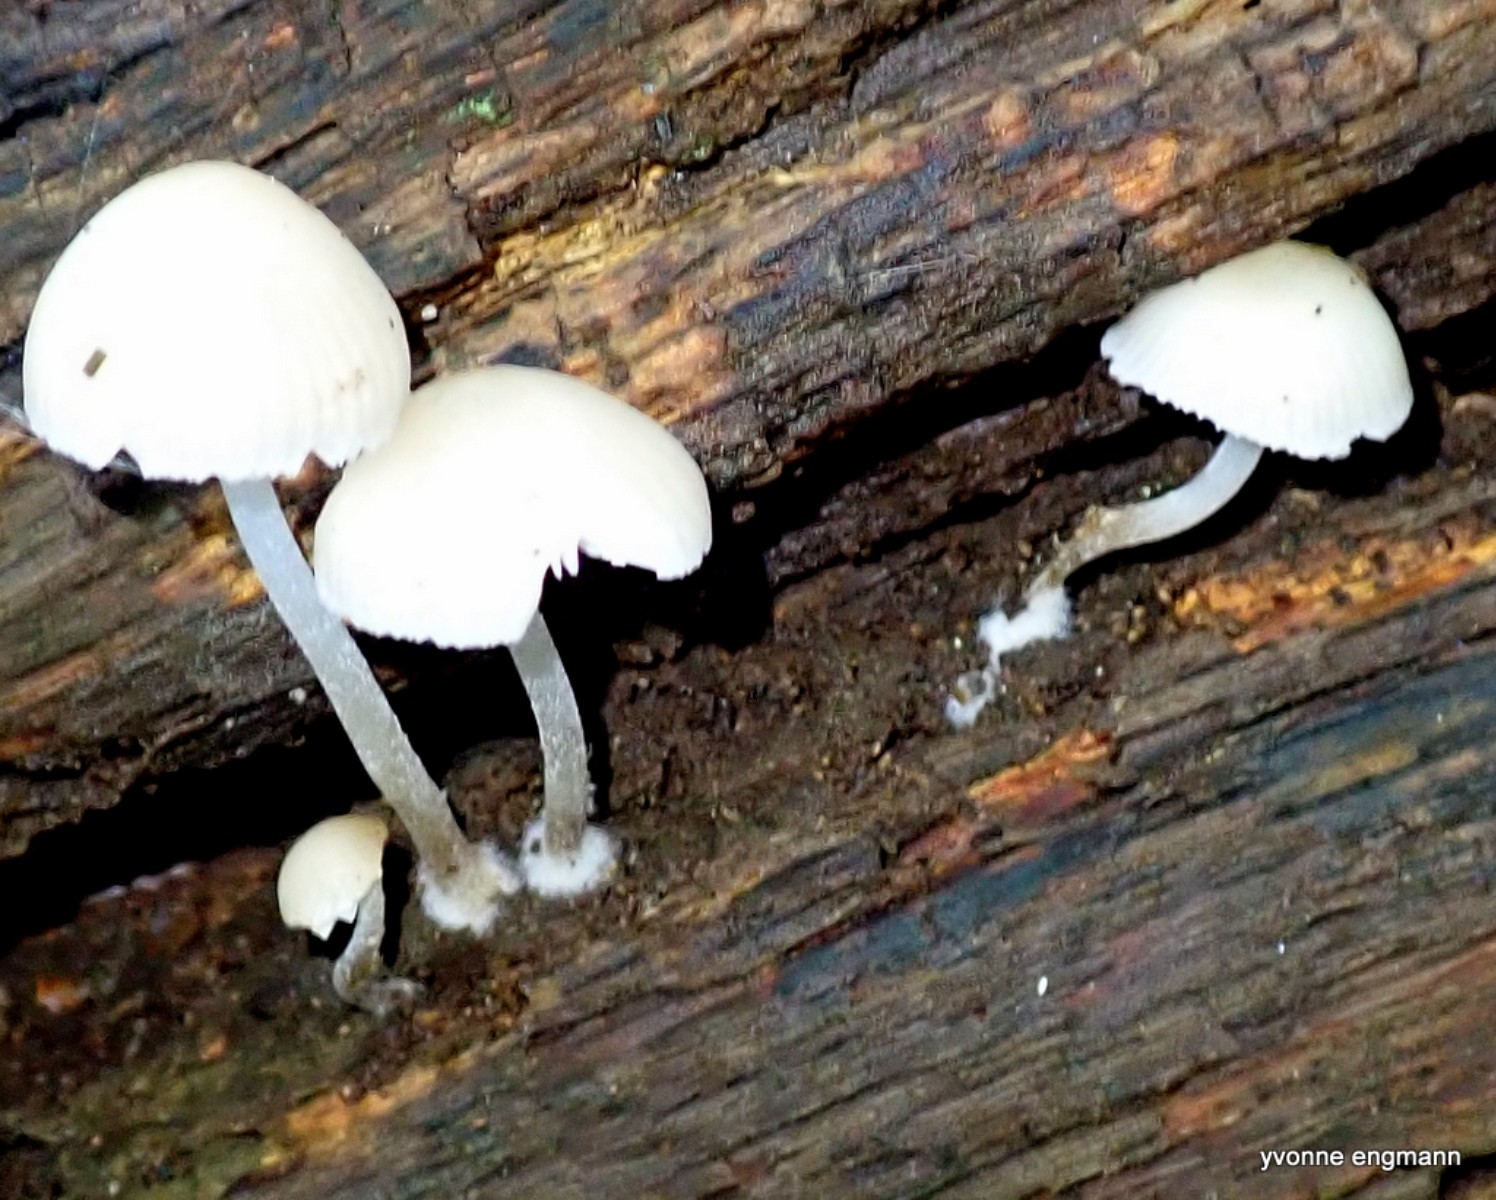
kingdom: Fungi
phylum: Basidiomycota
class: Agaricomycetes
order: Agaricales
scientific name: Agaricales
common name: champignonordenen
